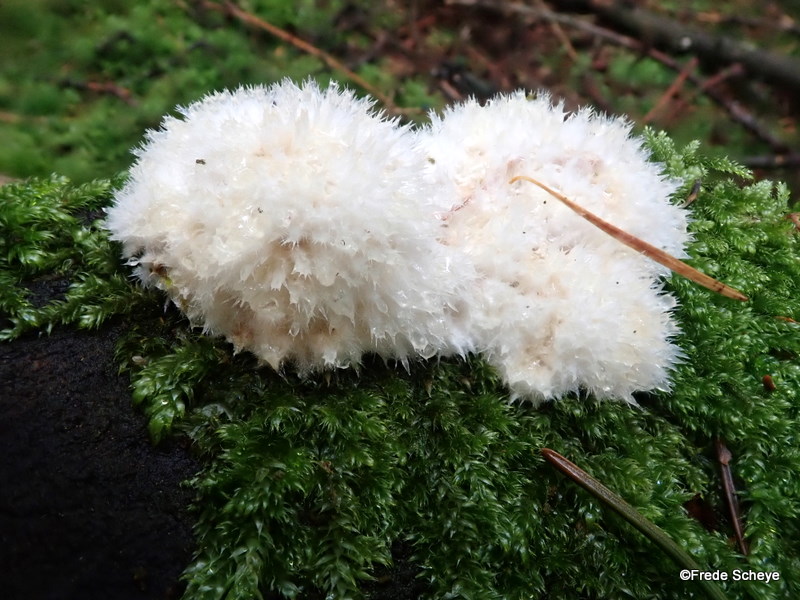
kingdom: Fungi
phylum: Basidiomycota
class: Agaricomycetes
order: Polyporales
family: Dacryobolaceae
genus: Postia
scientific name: Postia ptychogaster
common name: støvende kødporesvamp
